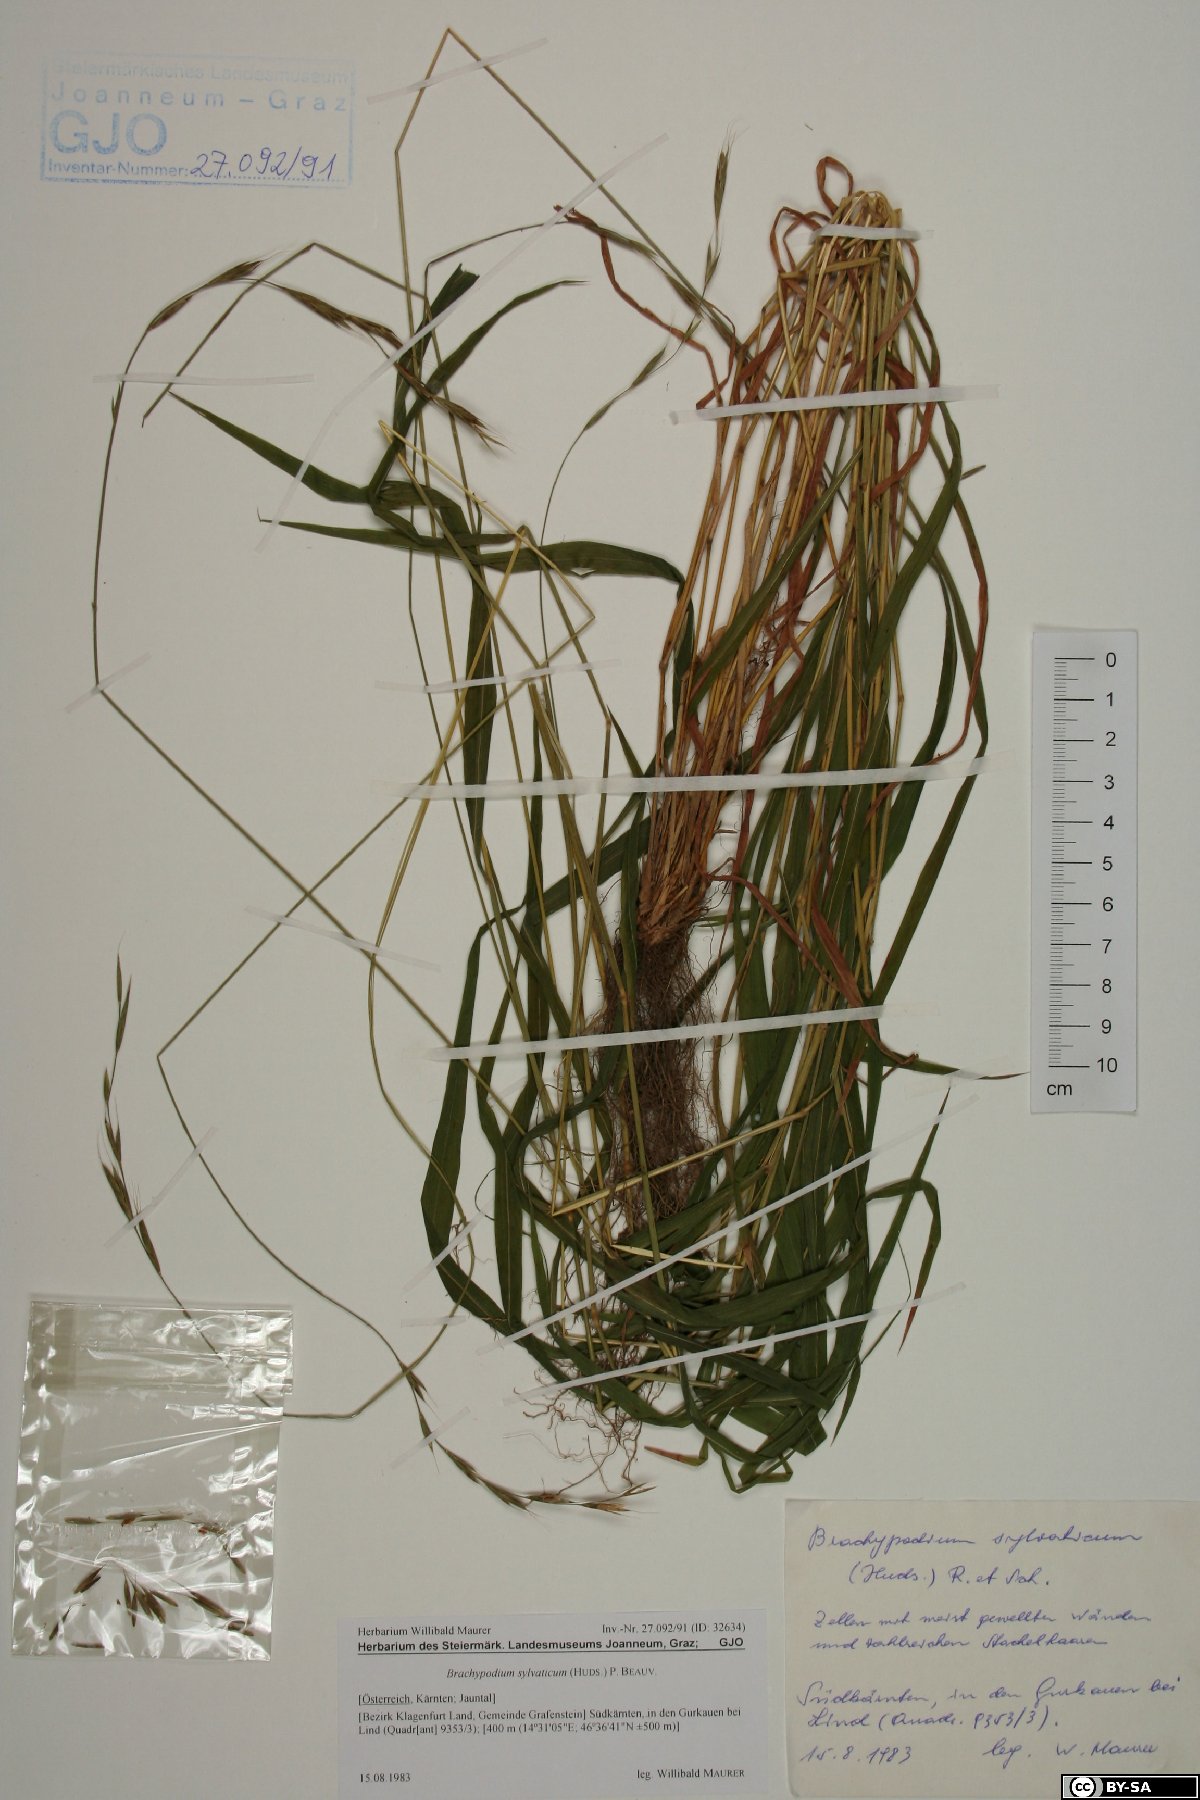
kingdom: Plantae
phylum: Tracheophyta
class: Liliopsida
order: Poales
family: Poaceae
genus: Brachypodium
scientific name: Brachypodium sylvaticum
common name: False-brome
